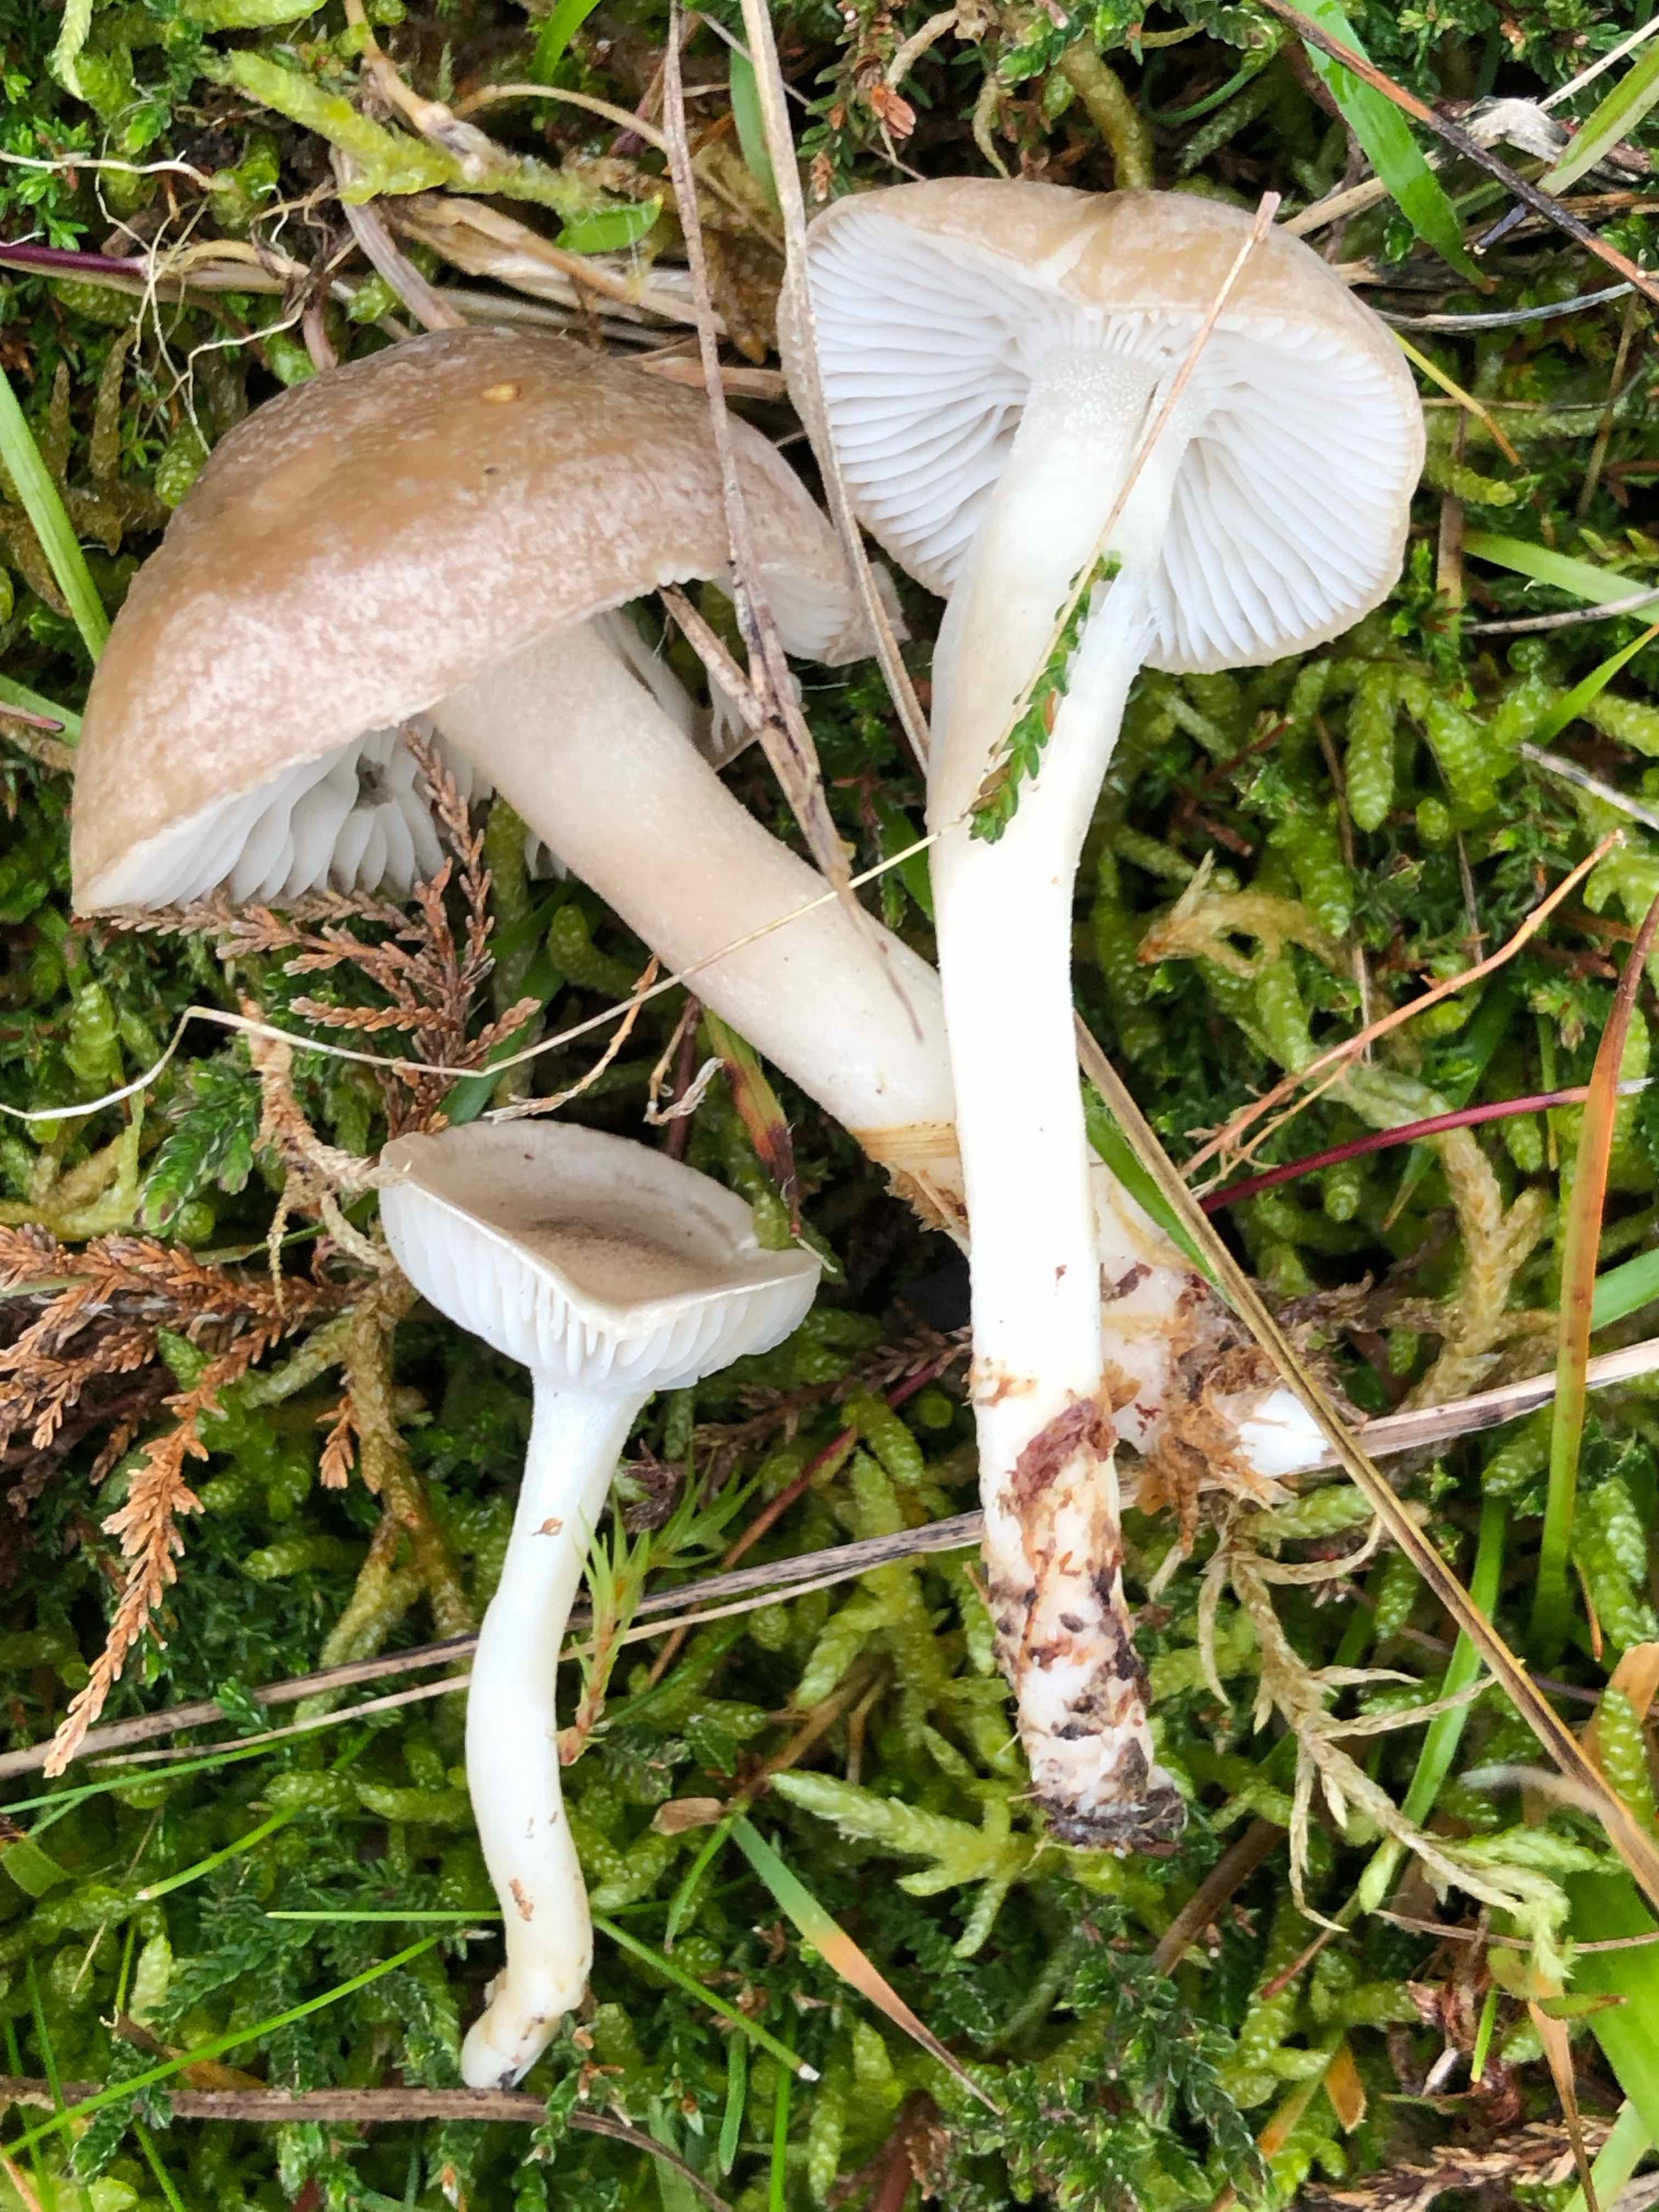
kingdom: Fungi
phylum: Basidiomycota
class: Agaricomycetes
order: Agaricales
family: Hygrophoraceae
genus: Hygrophorus
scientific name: Hygrophorus agathosmus
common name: vellugtende sneglehat
